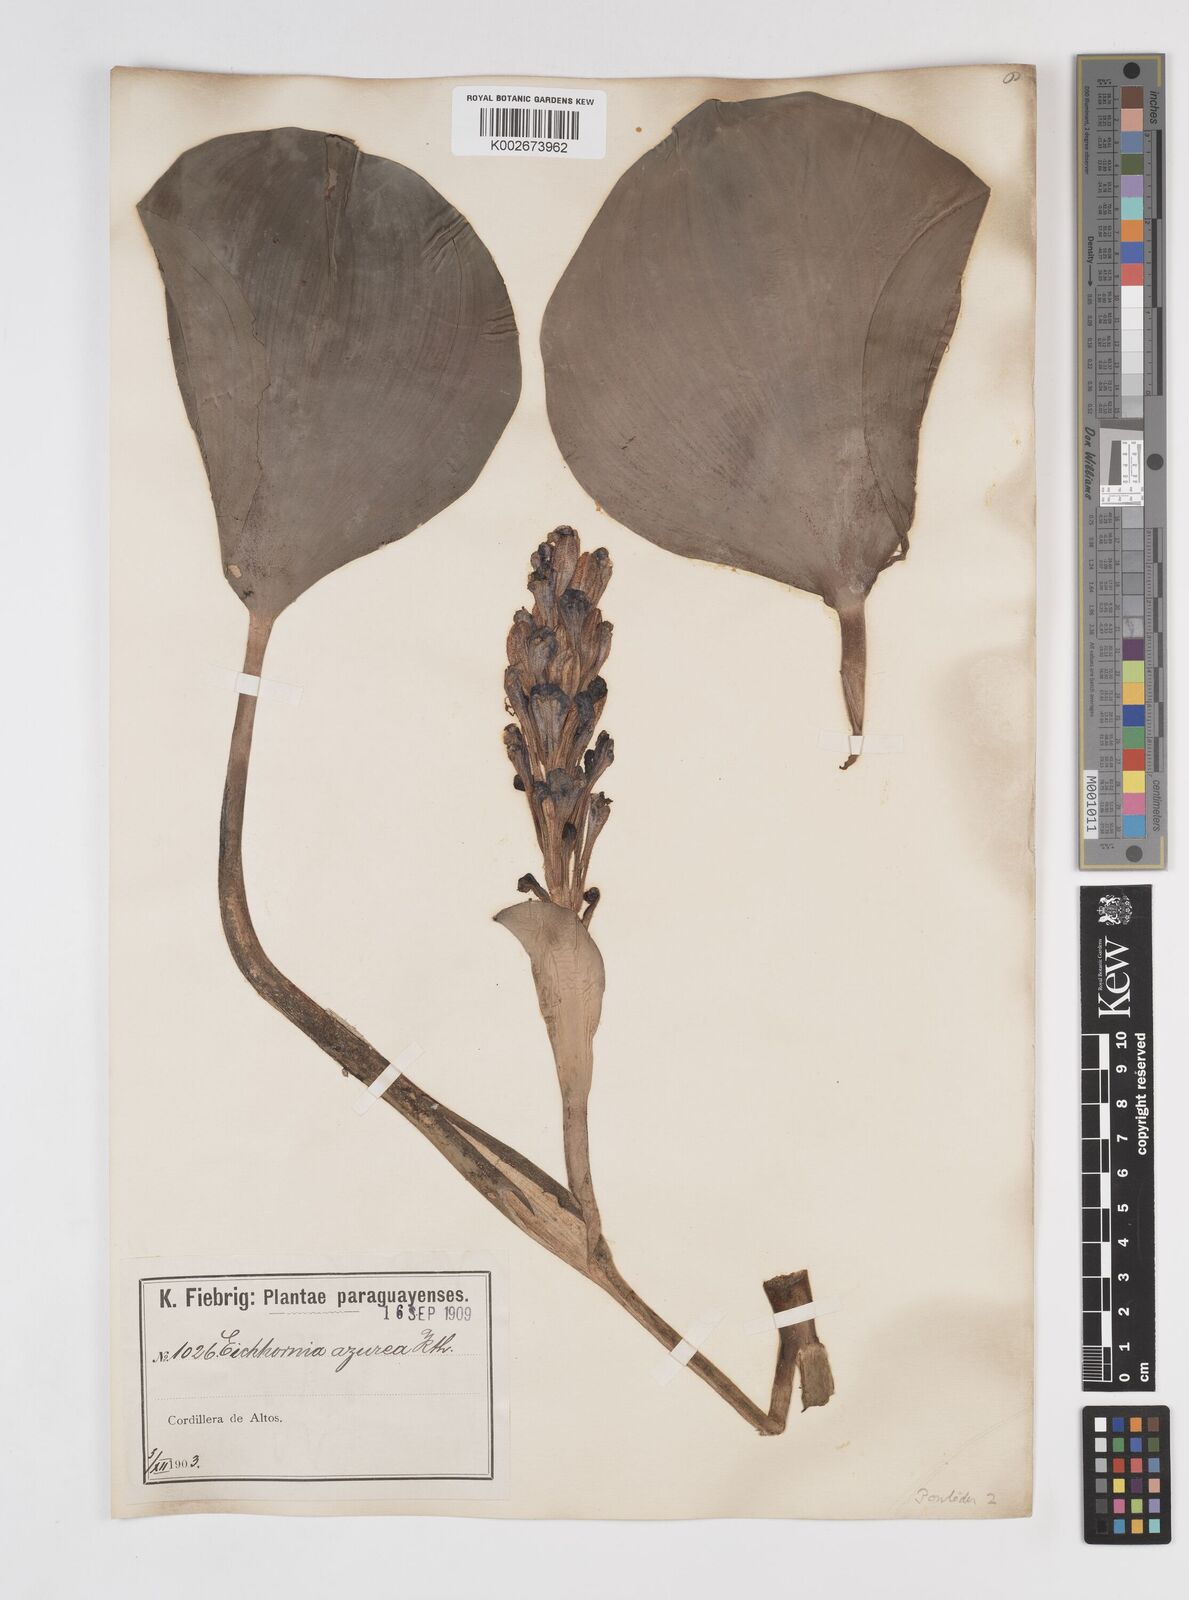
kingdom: Plantae
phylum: Tracheophyta
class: Liliopsida
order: Commelinales
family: Pontederiaceae
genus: Pontederia
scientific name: Pontederia azurea
